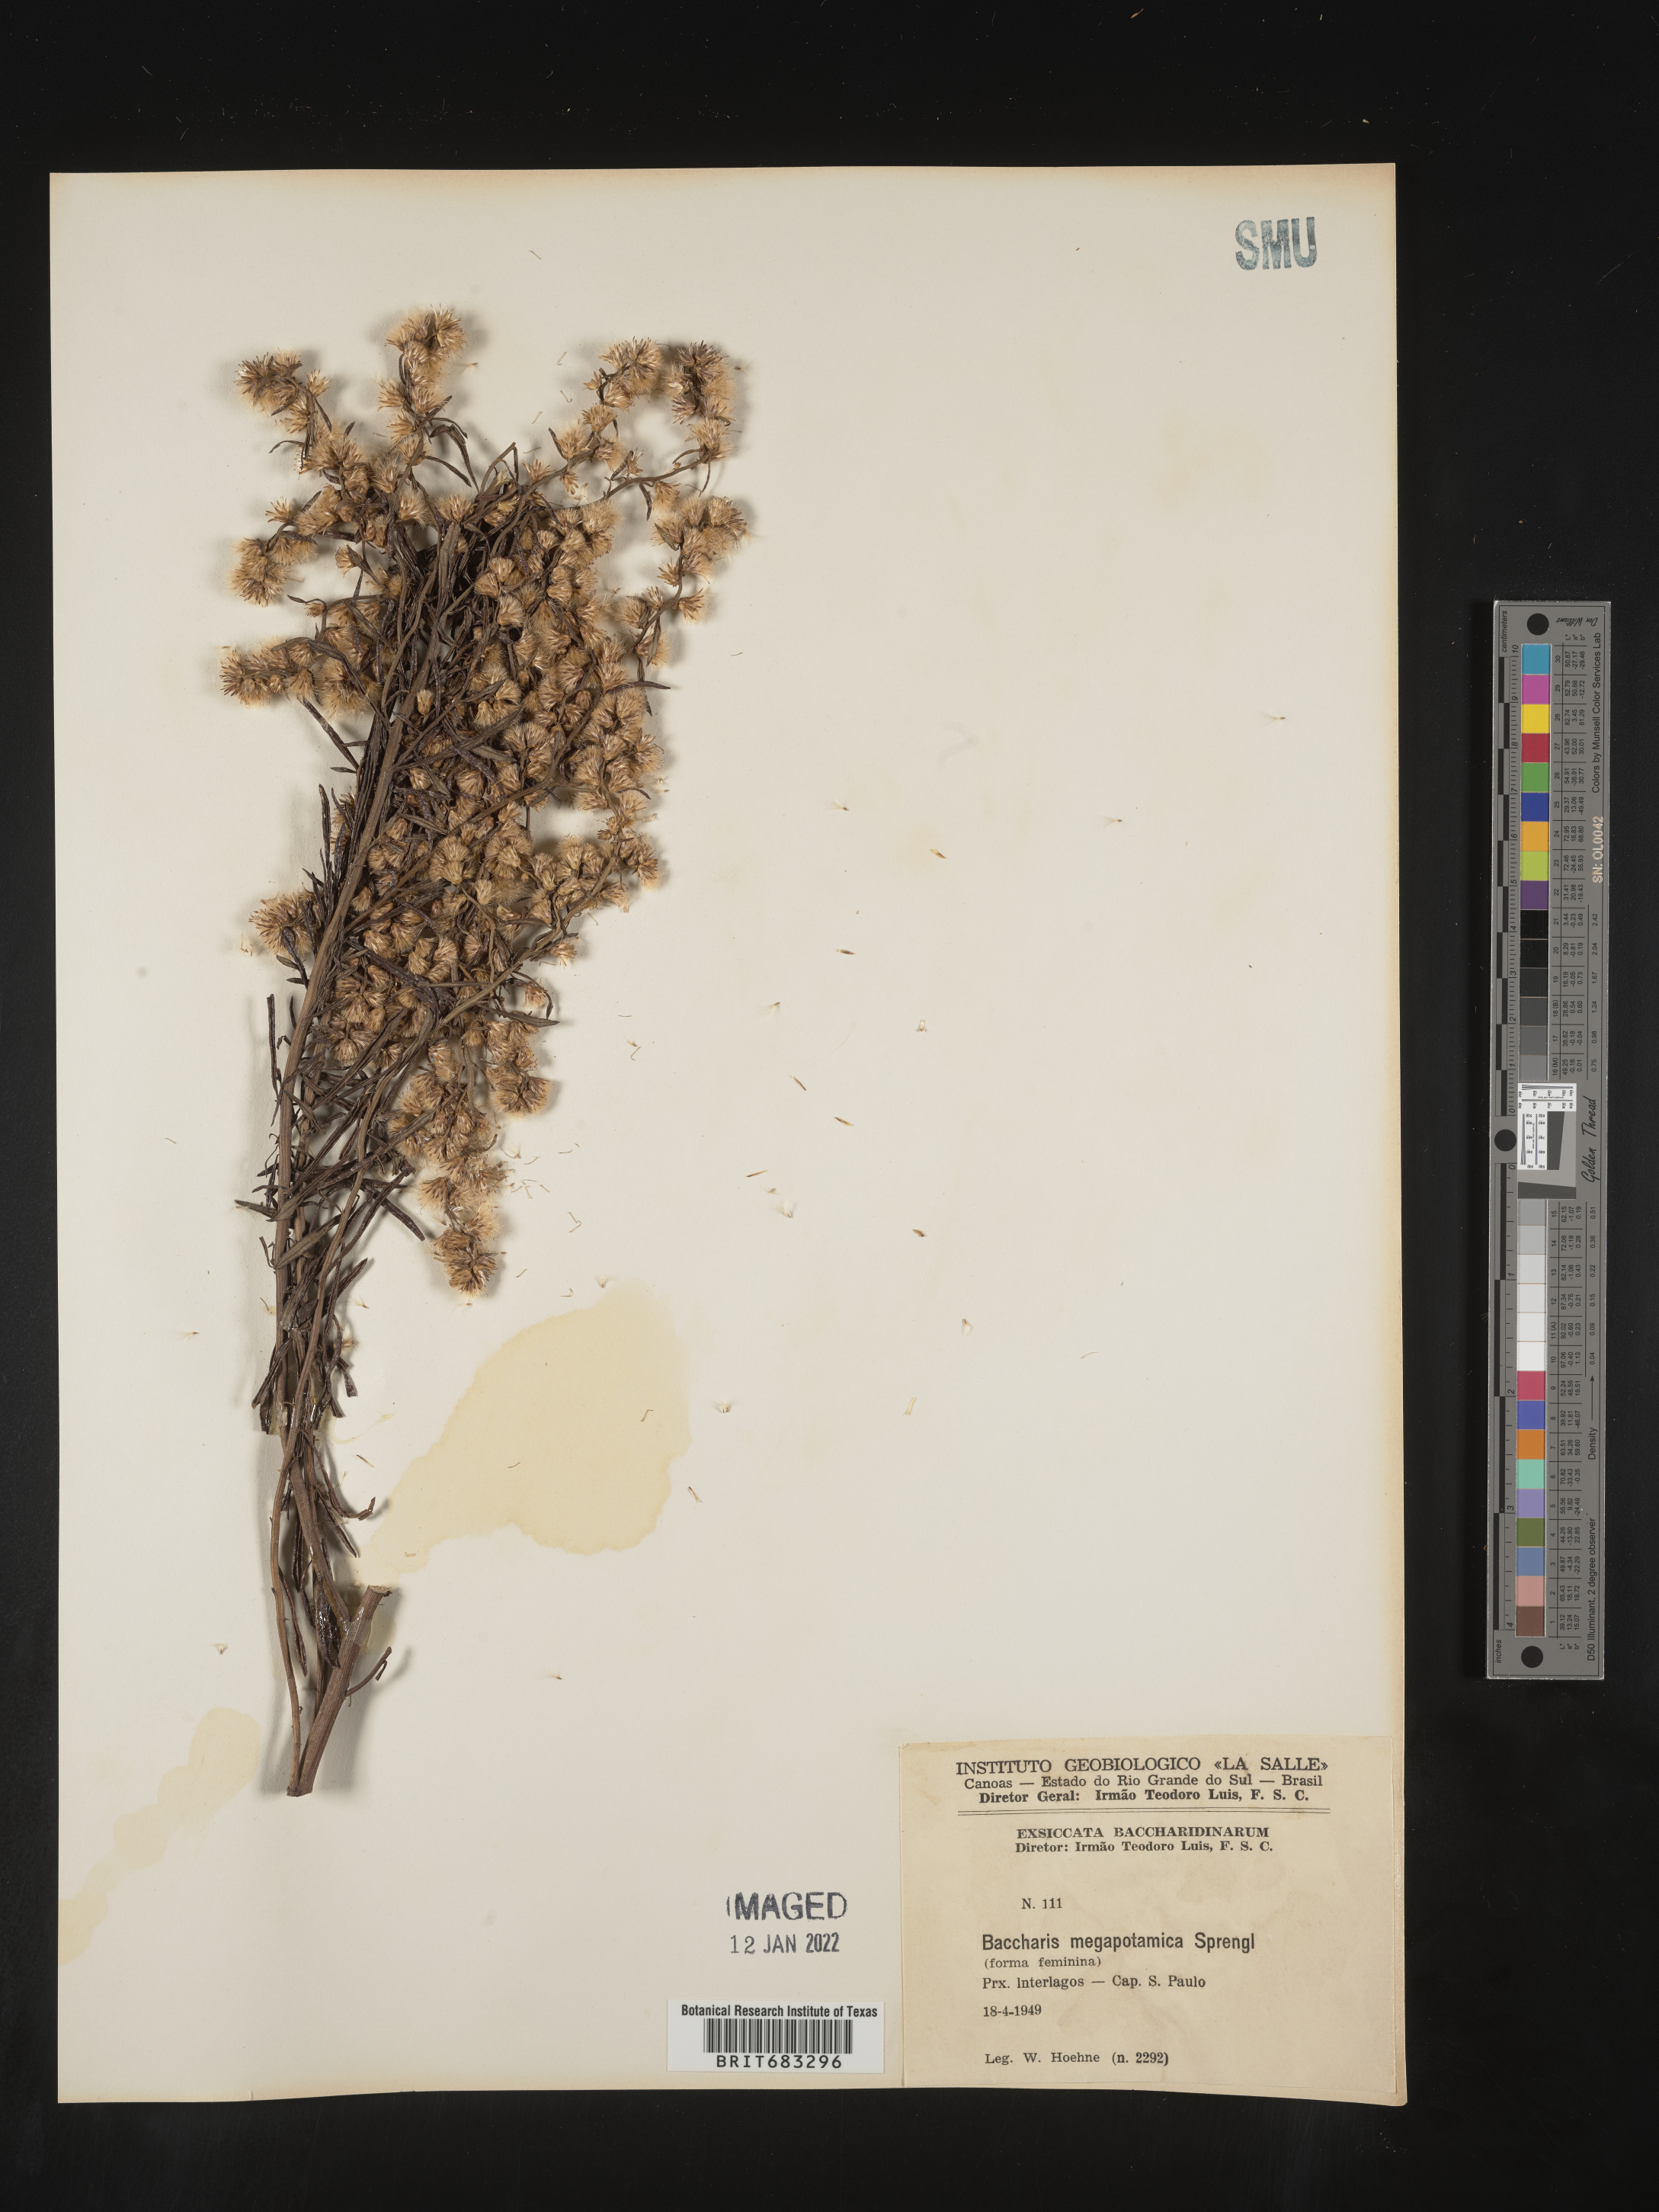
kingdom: Plantae
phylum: Tracheophyta
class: Magnoliopsida
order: Asterales
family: Asteraceae
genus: Baccharis
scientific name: Baccharis
